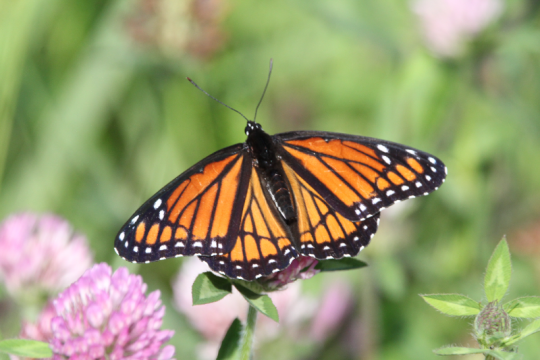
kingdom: Animalia
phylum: Arthropoda
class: Insecta
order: Lepidoptera
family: Nymphalidae
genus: Limenitis
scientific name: Limenitis archippus
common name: Viceroy
